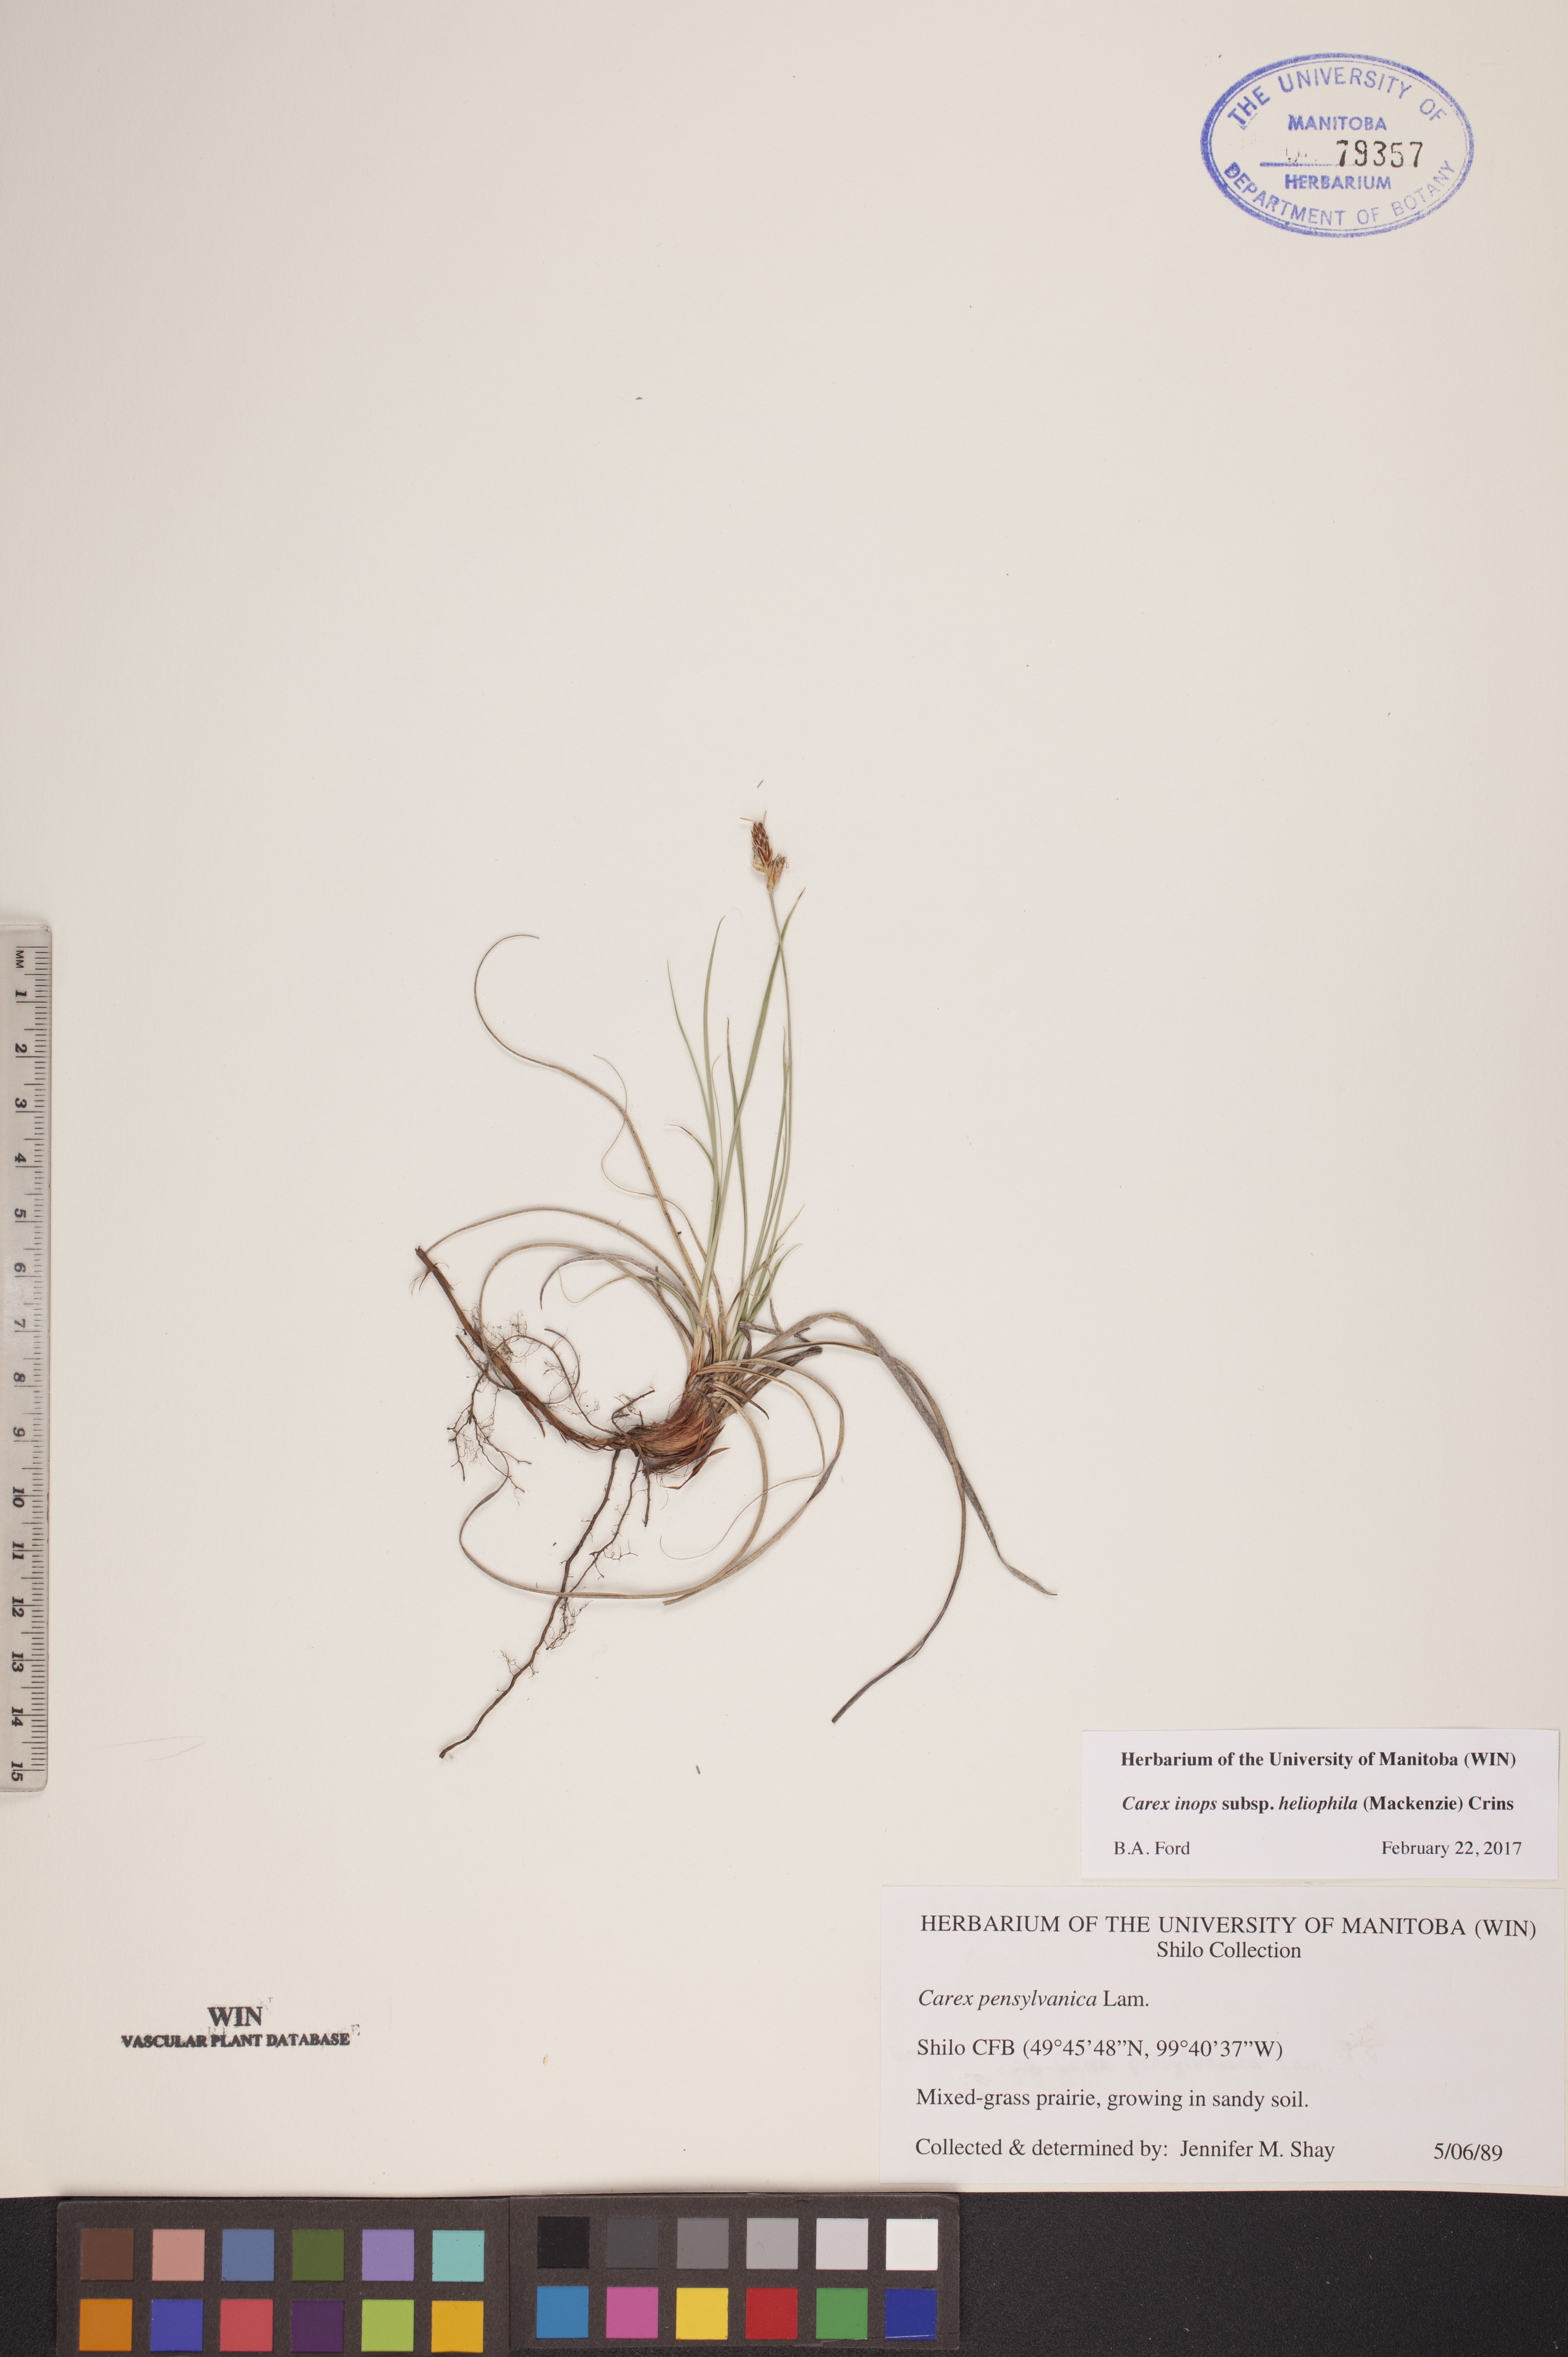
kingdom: Plantae
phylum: Tracheophyta
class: Liliopsida
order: Poales
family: Cyperaceae
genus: Carex
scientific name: Carex inops
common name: Long-stolon sedge
